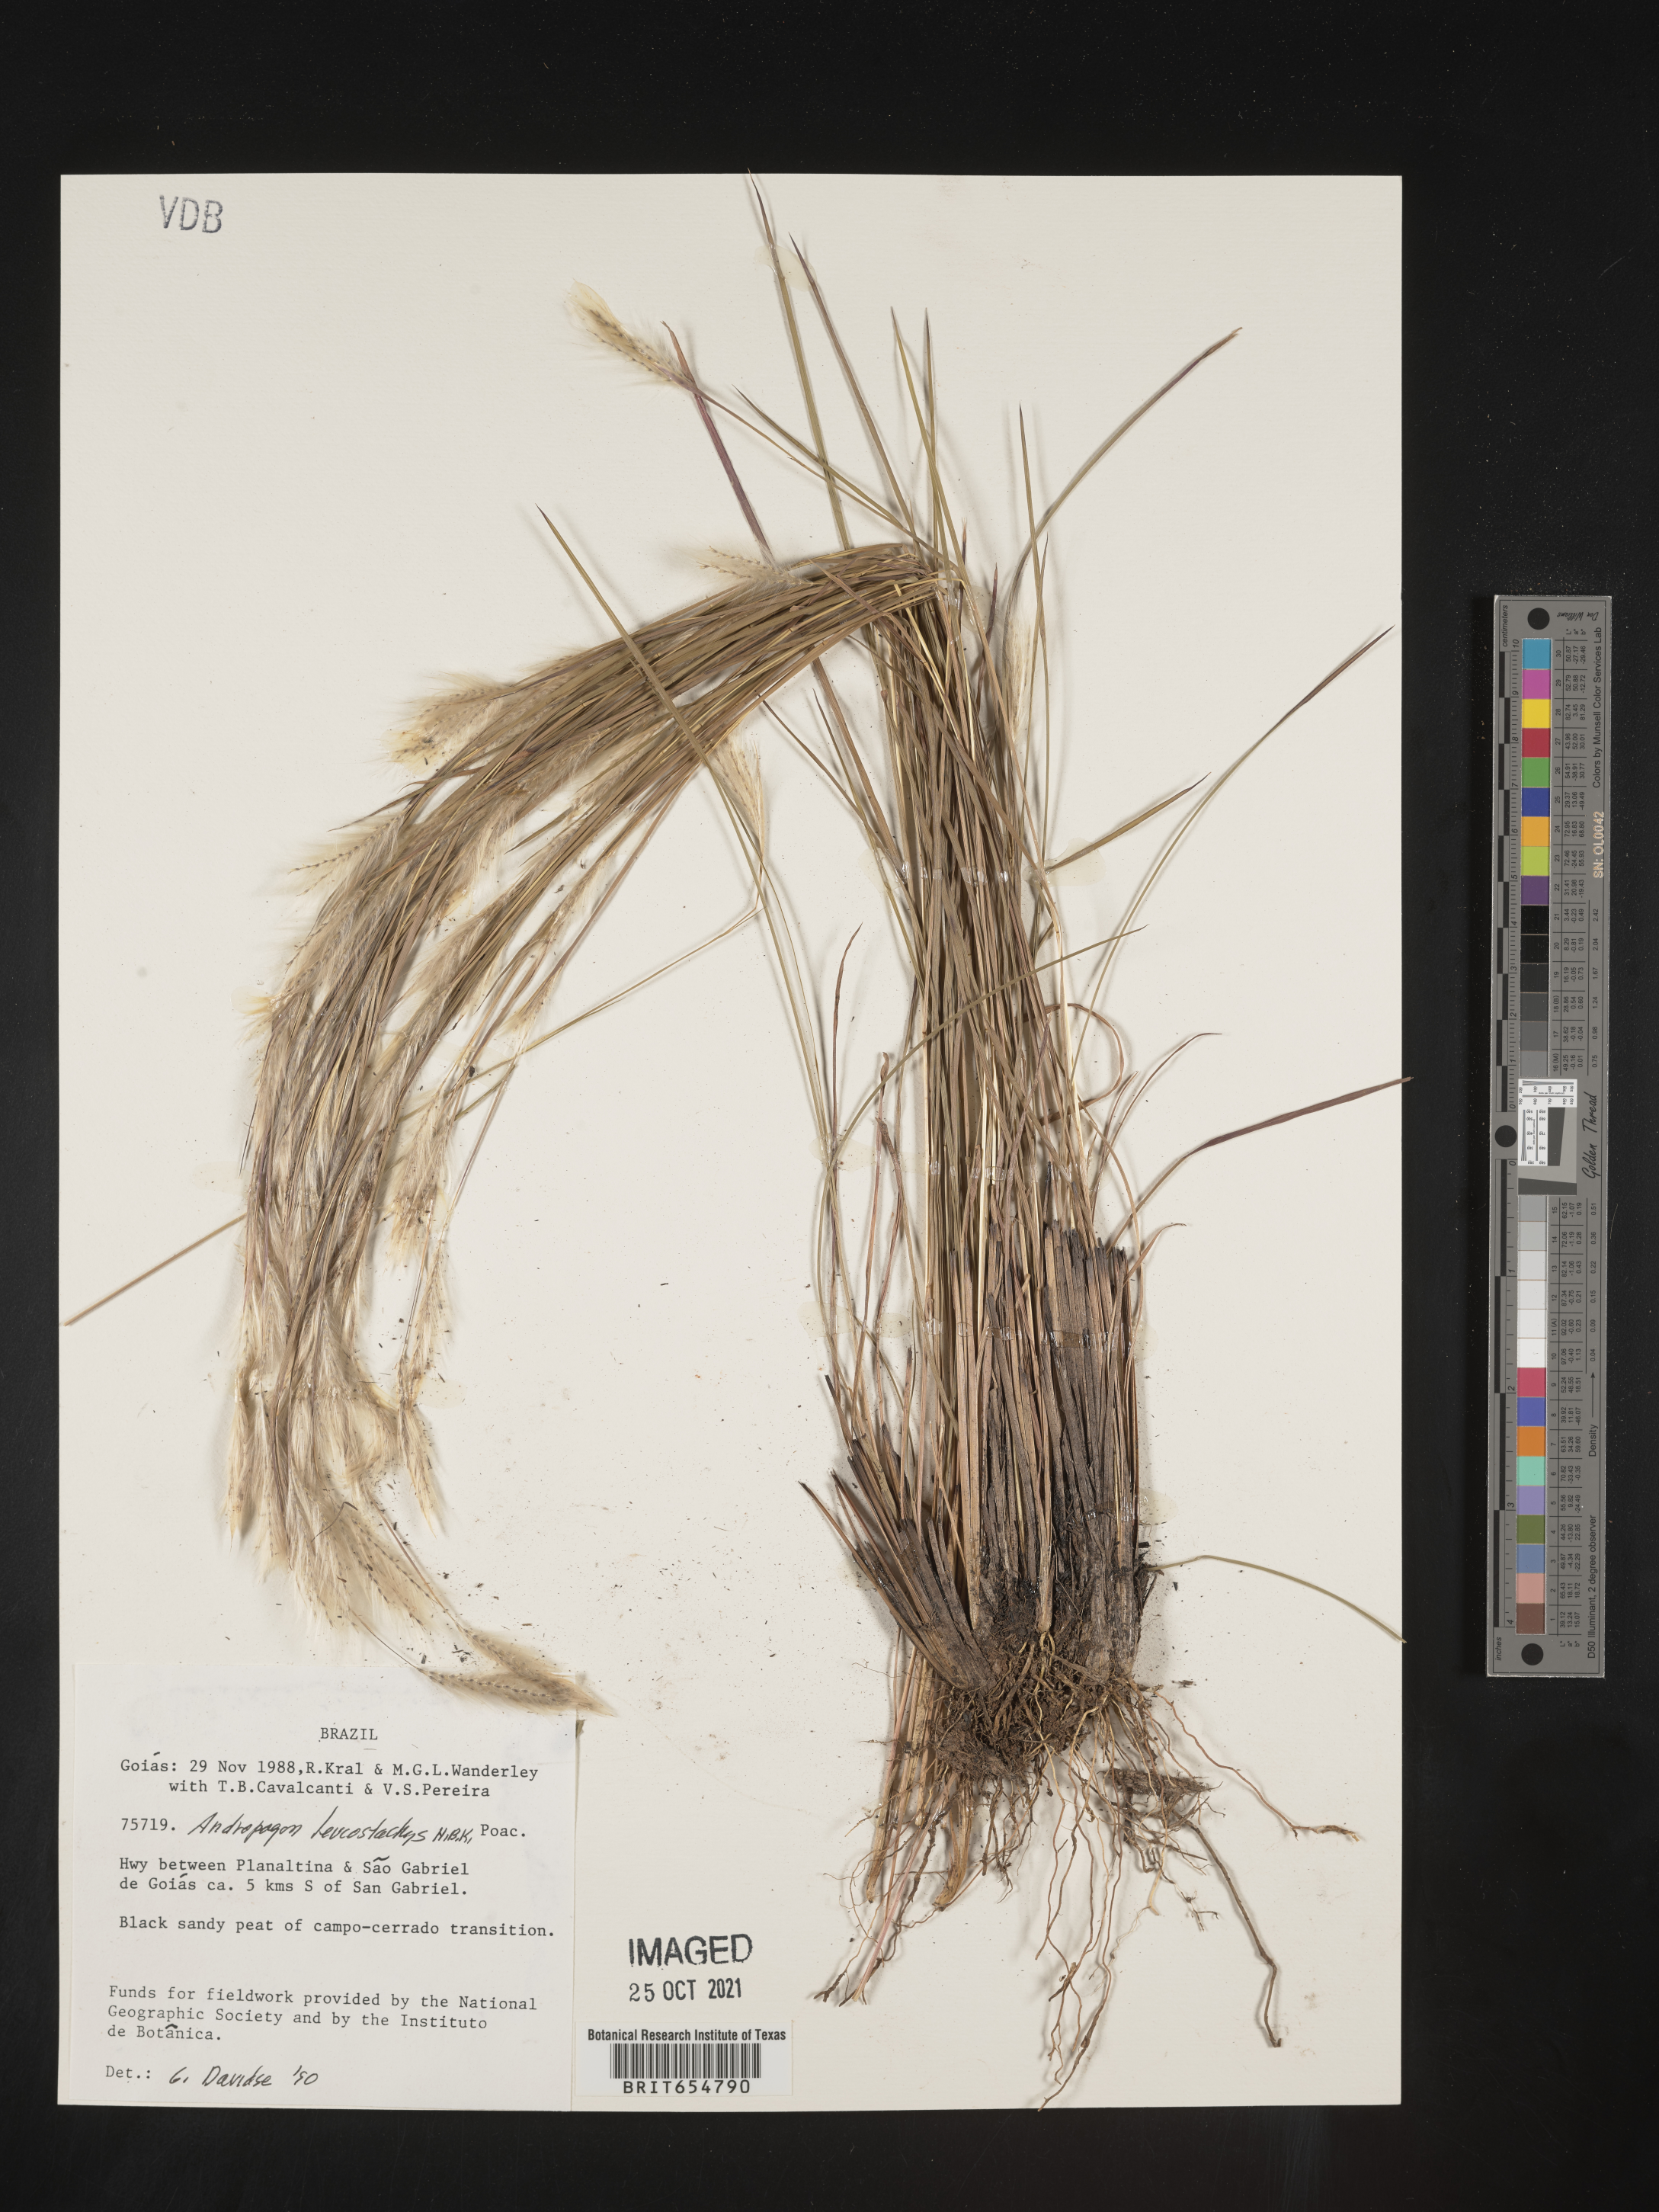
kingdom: Plantae
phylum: Tracheophyta
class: Liliopsida
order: Poales
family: Poaceae
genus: Andropogon
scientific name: Andropogon
